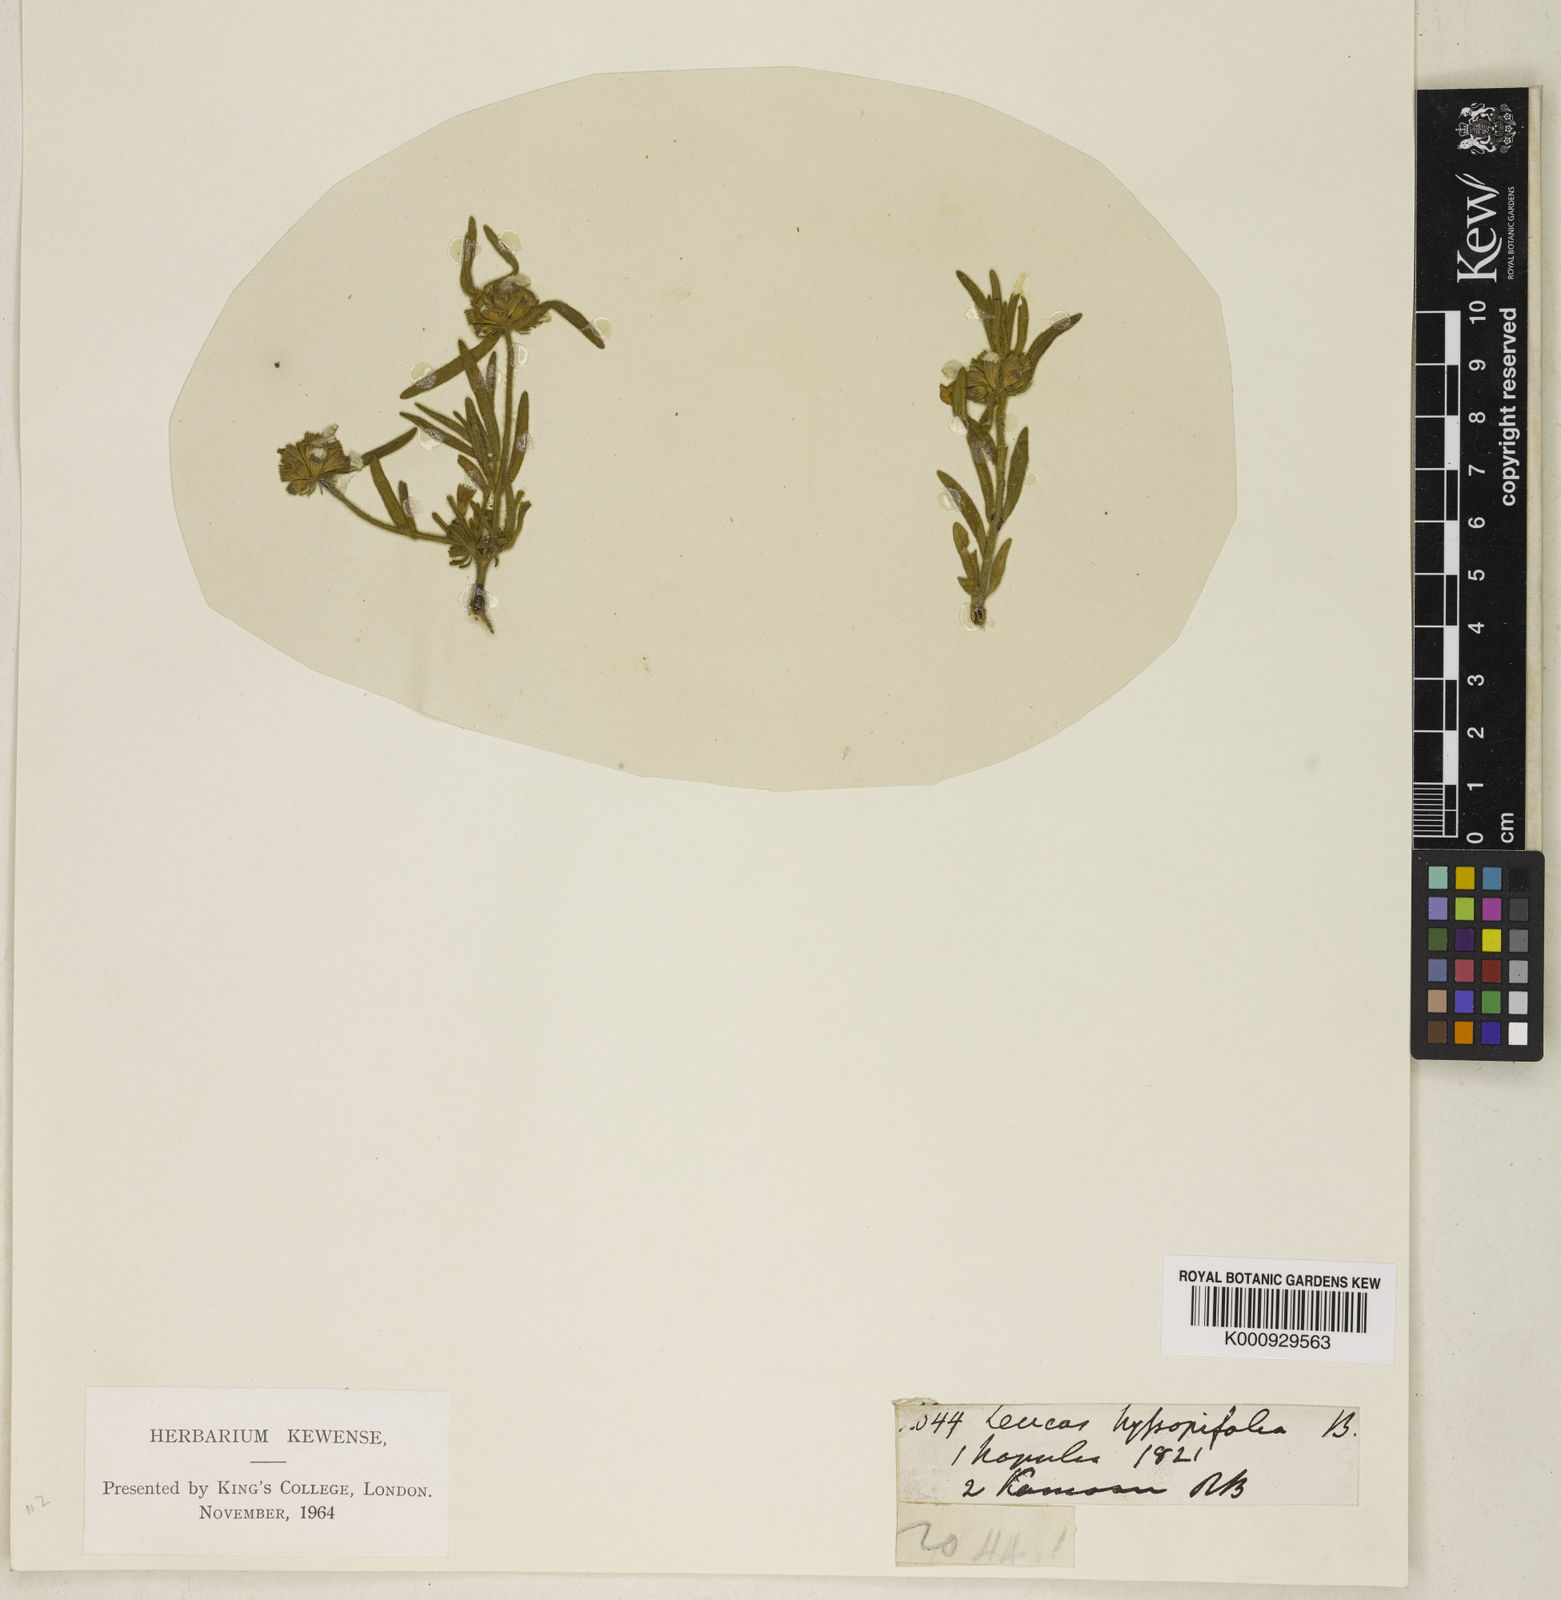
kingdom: Plantae
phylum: Tracheophyta
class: Magnoliopsida
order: Lamiales
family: Lamiaceae
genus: Leucas
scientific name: Leucas hyssopifolia
